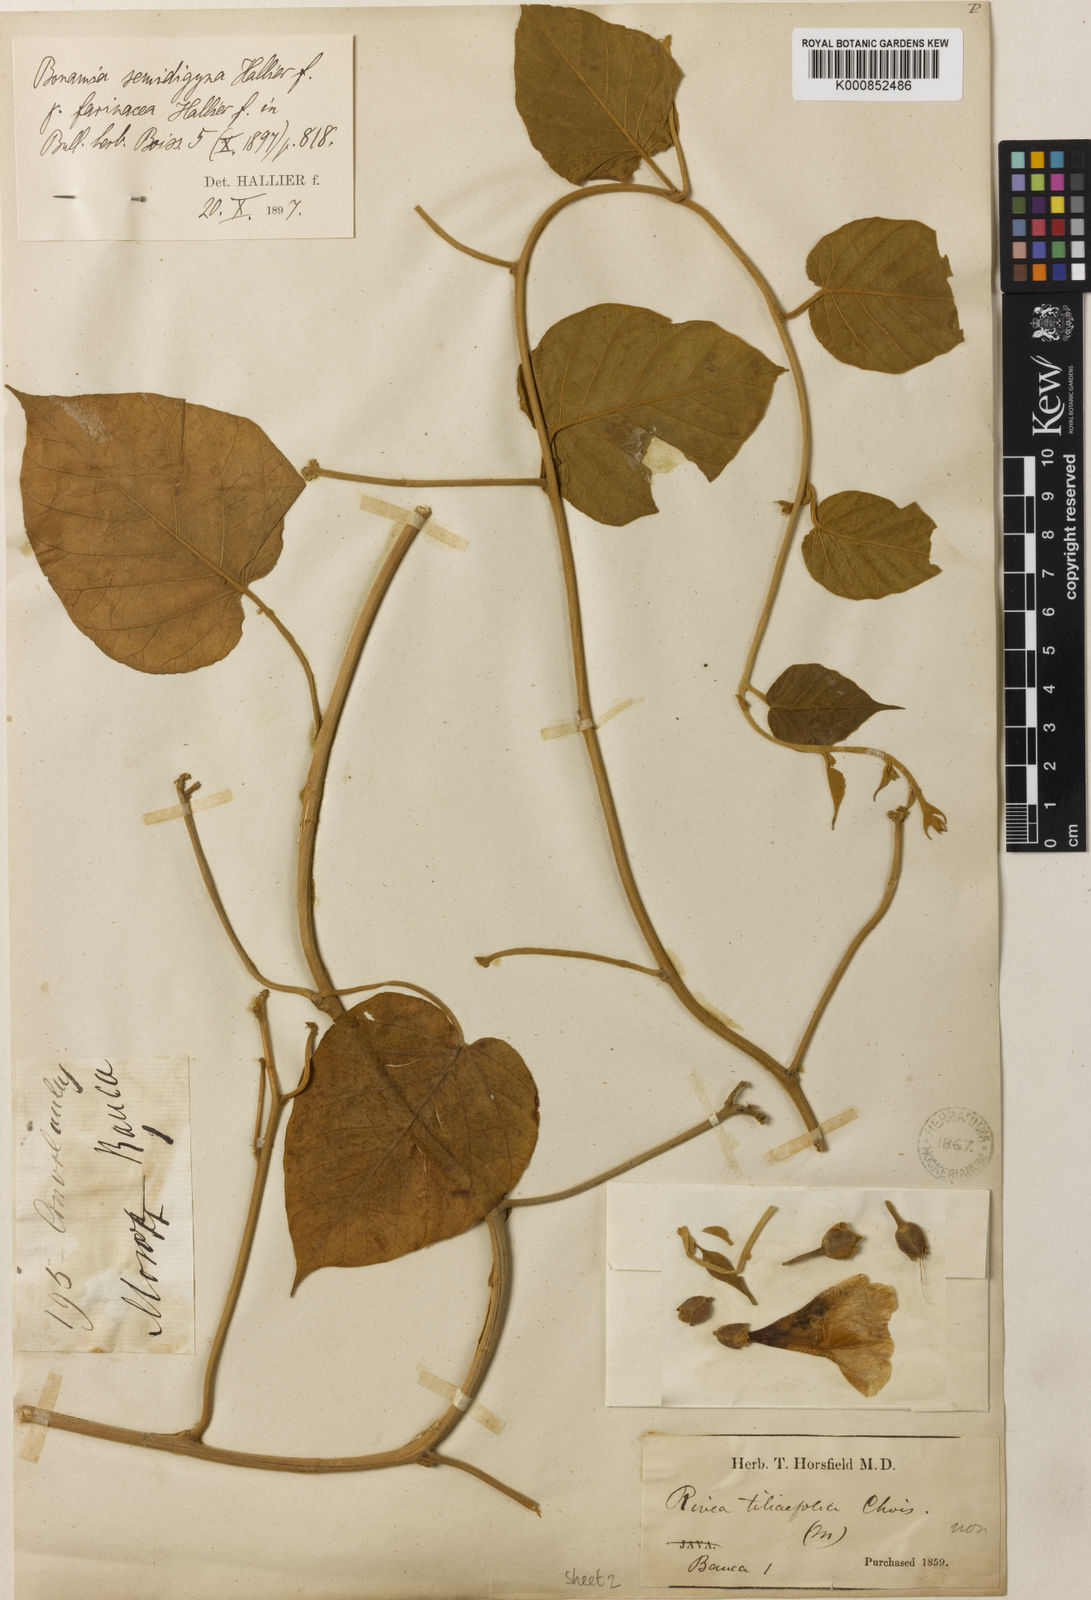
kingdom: Plantae
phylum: Tracheophyta
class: Magnoliopsida
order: Solanales
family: Convolvulaceae
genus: Bonamia
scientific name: Bonamia semidigyna
